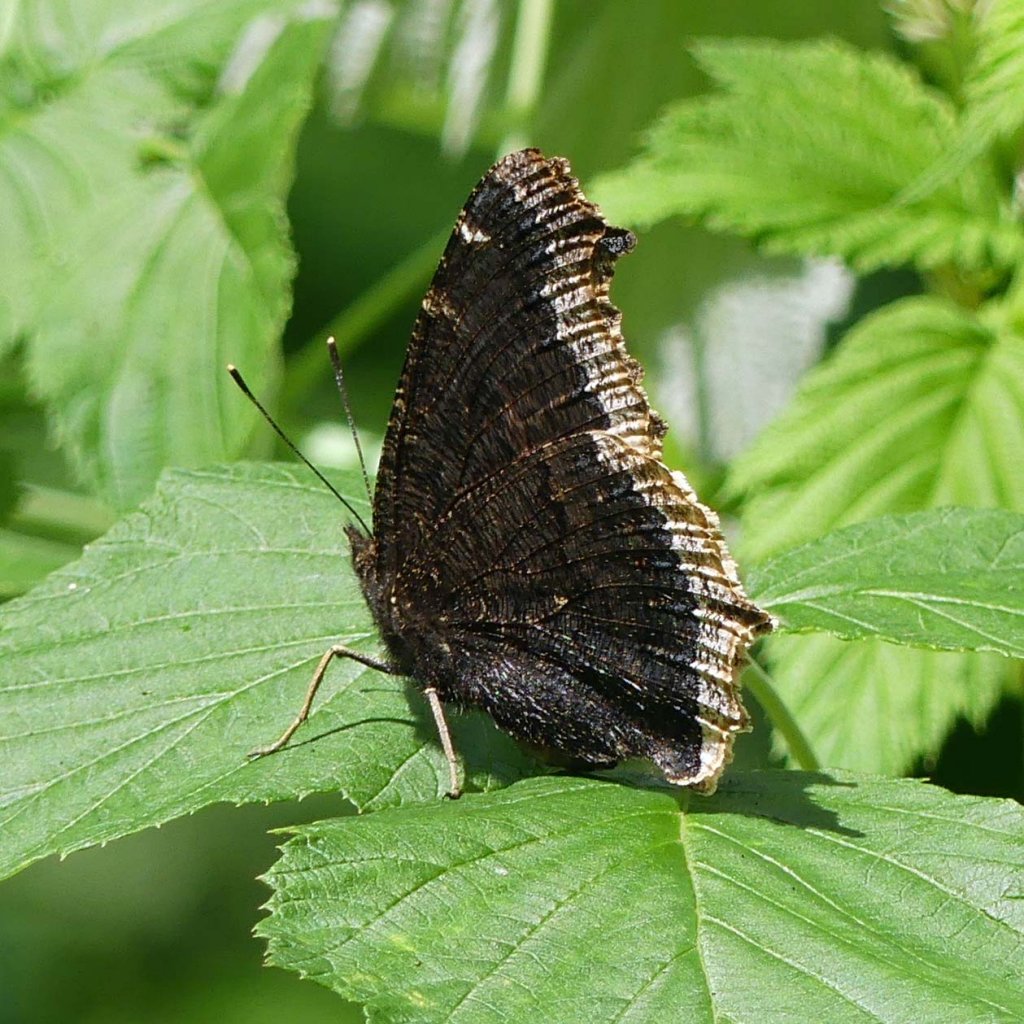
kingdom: Animalia
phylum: Arthropoda
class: Insecta
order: Lepidoptera
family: Nymphalidae
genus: Nymphalis
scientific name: Nymphalis antiopa
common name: Mourning Cloak
